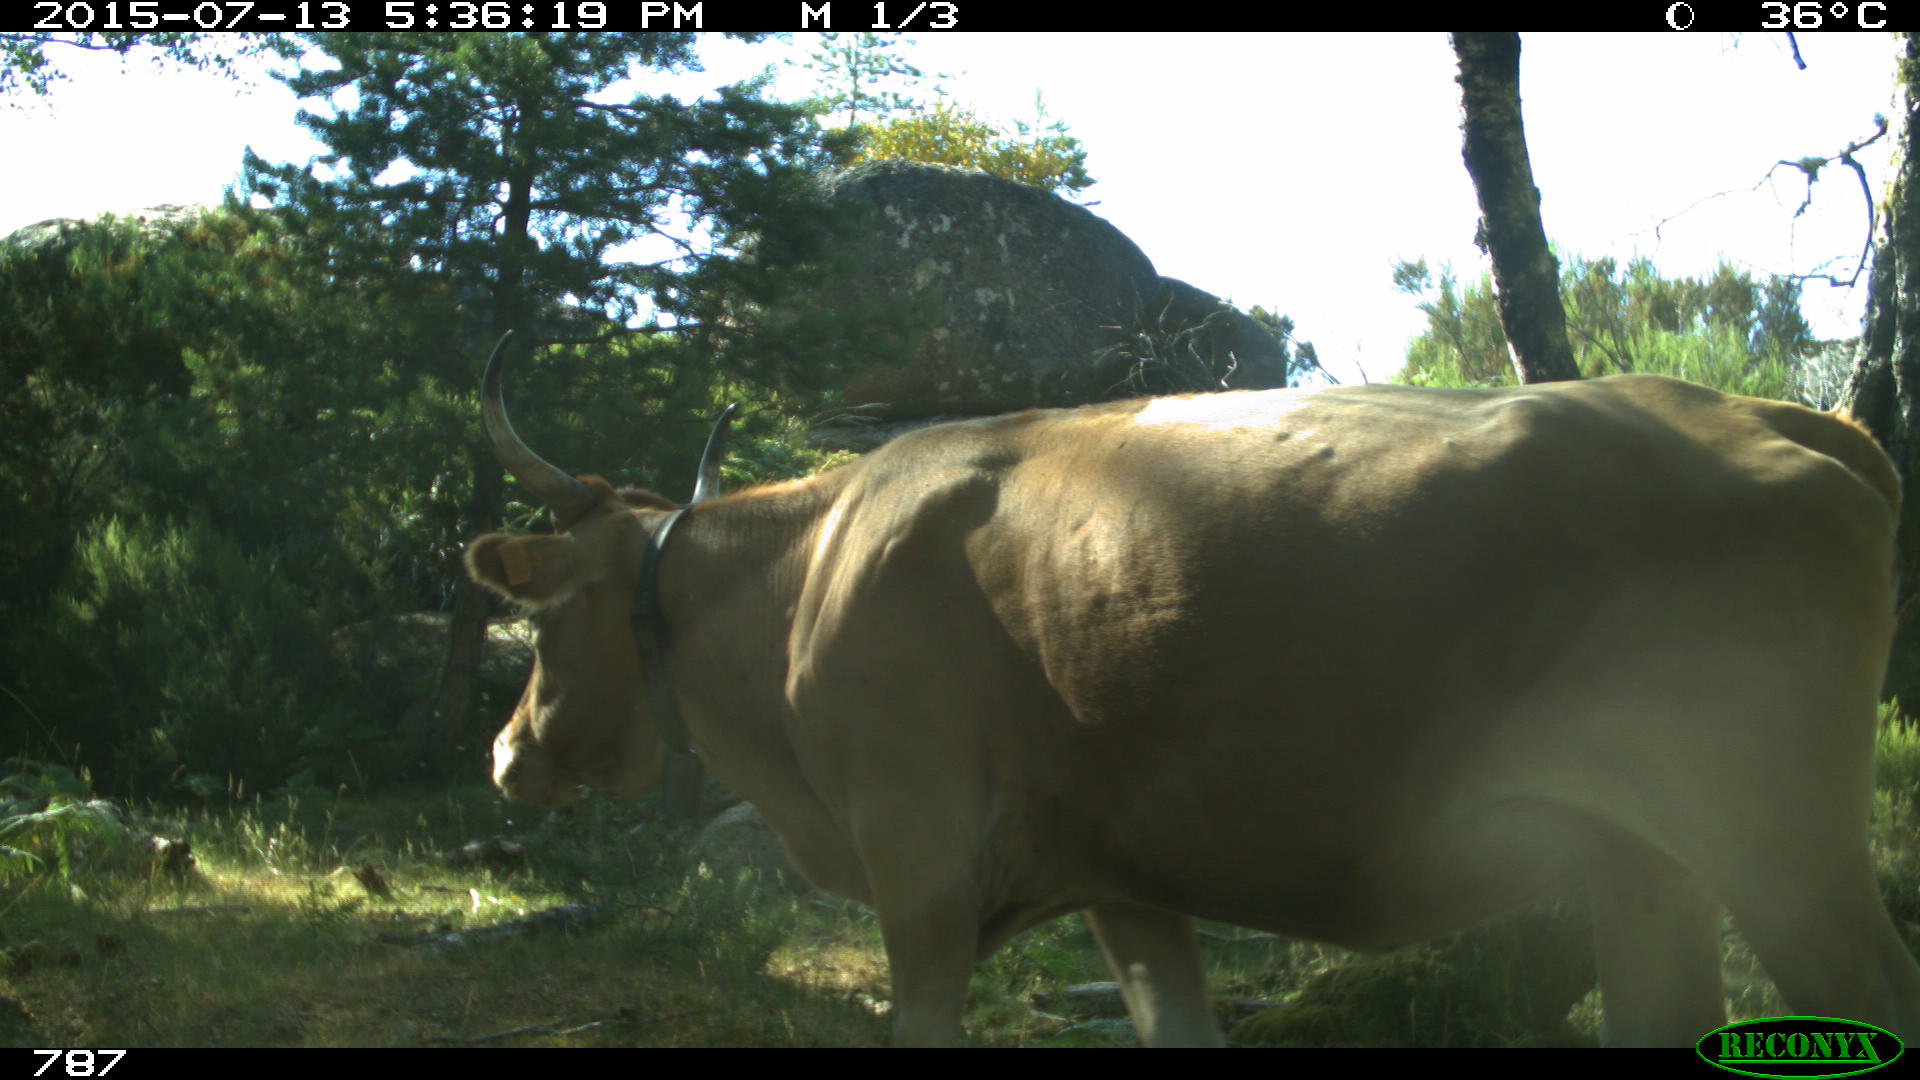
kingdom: Animalia
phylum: Chordata
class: Mammalia
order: Artiodactyla
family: Bovidae
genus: Bos
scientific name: Bos taurus
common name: Domesticated cattle
